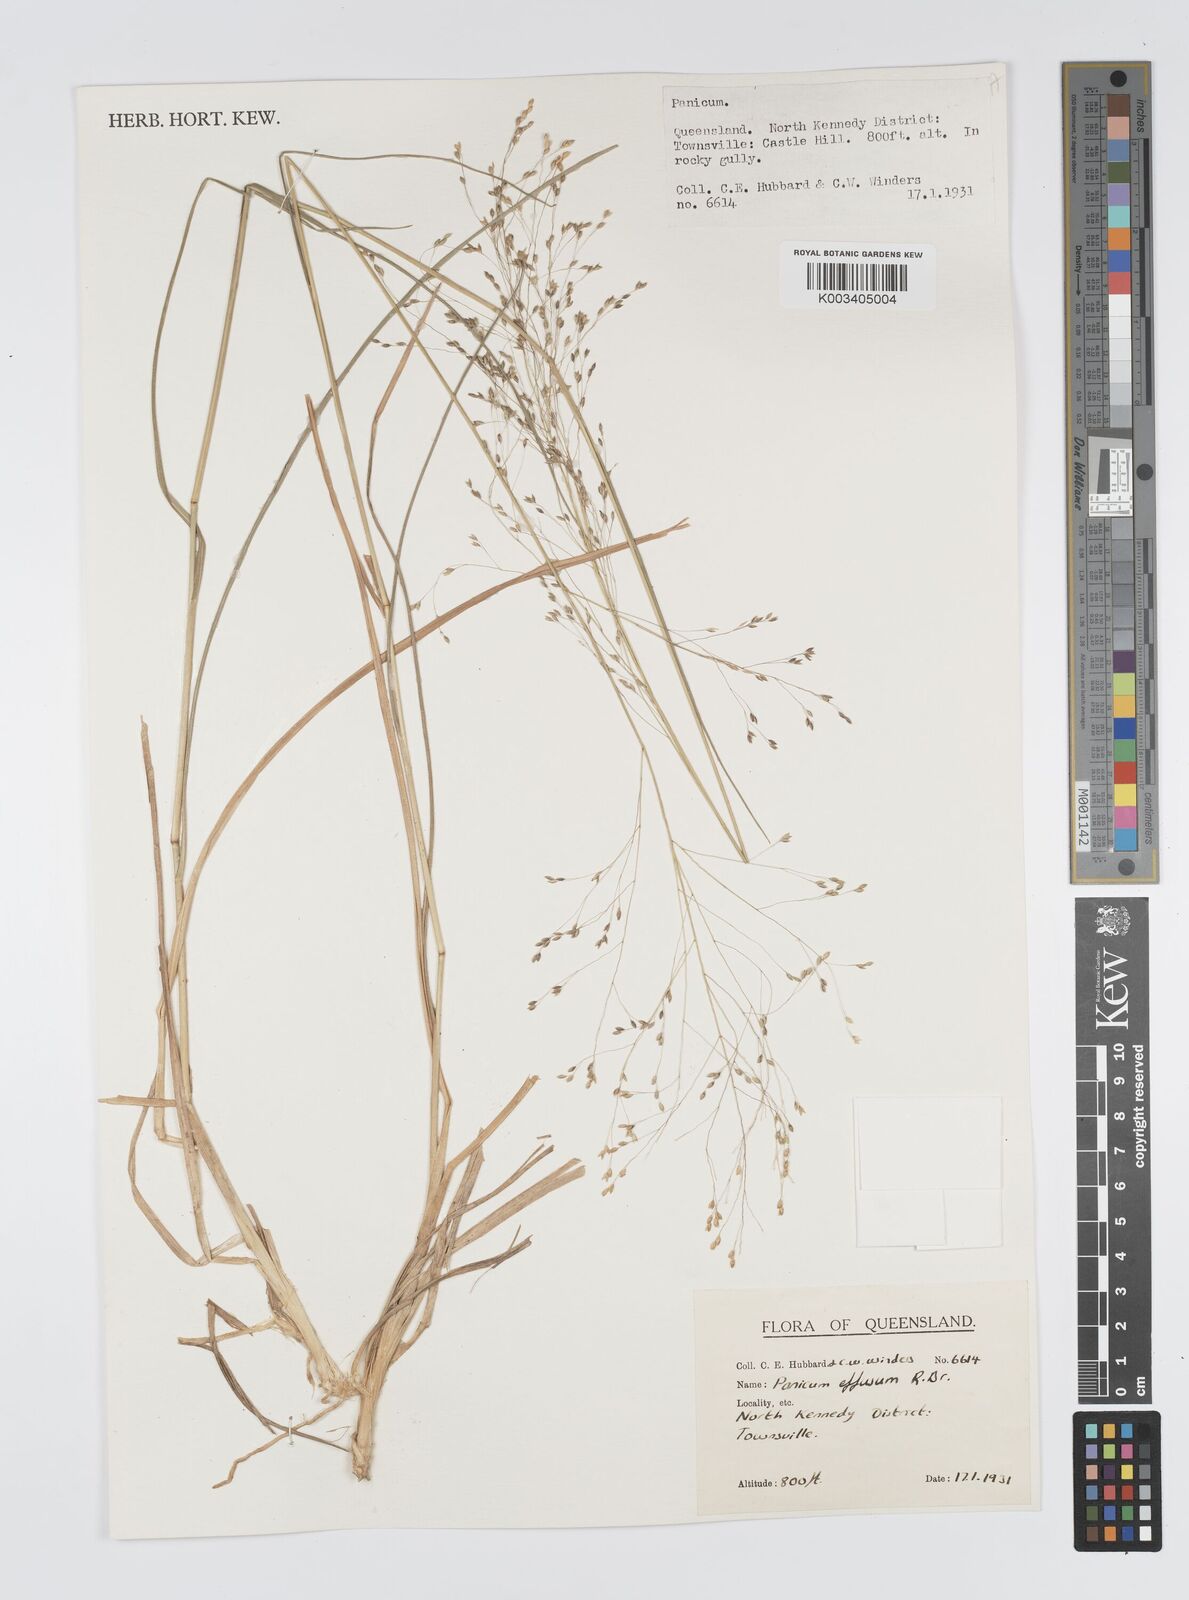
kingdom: Plantae
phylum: Tracheophyta
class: Liliopsida
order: Poales
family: Poaceae
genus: Panicum
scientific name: Panicum effusum
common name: Hairy panic grass
